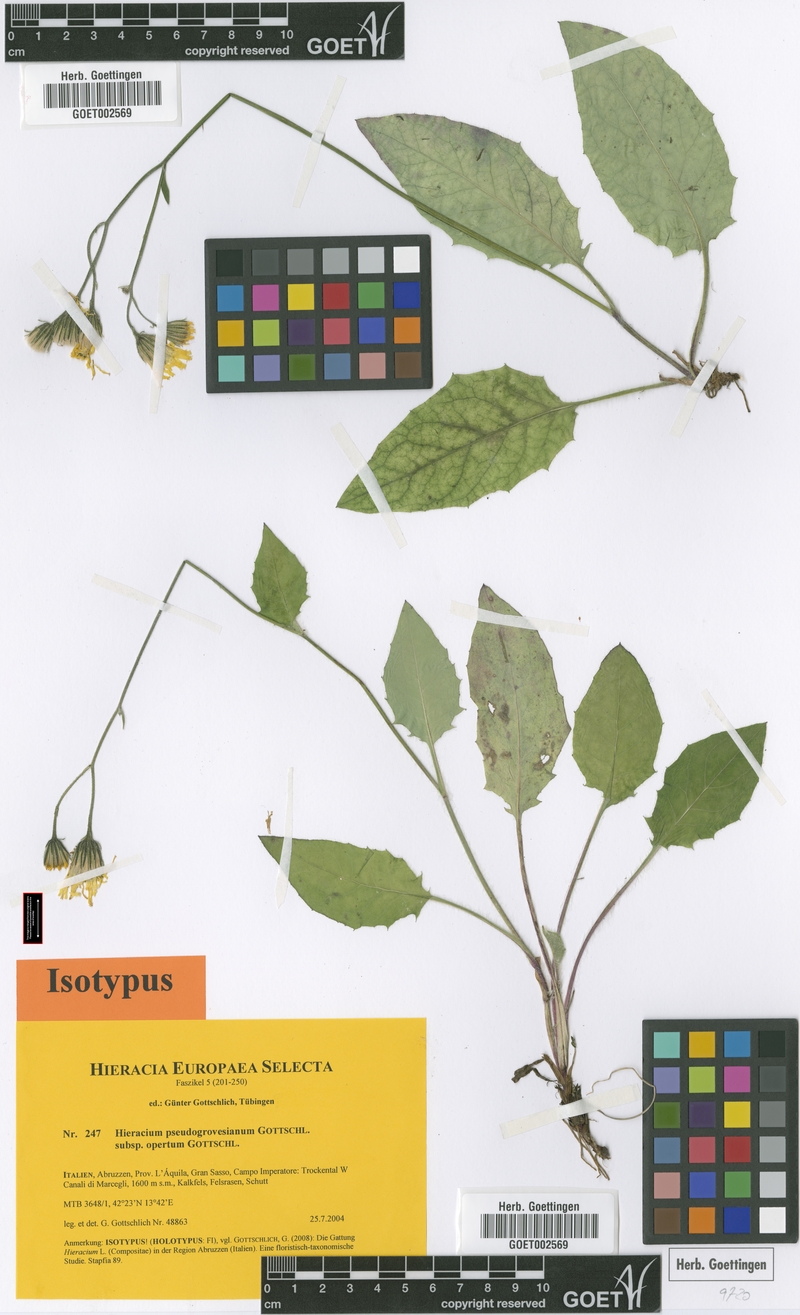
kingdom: Plantae
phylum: Tracheophyta
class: Magnoliopsida
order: Asterales
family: Asteraceae
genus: Hieracium
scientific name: Hieracium pseudogrovesianum
